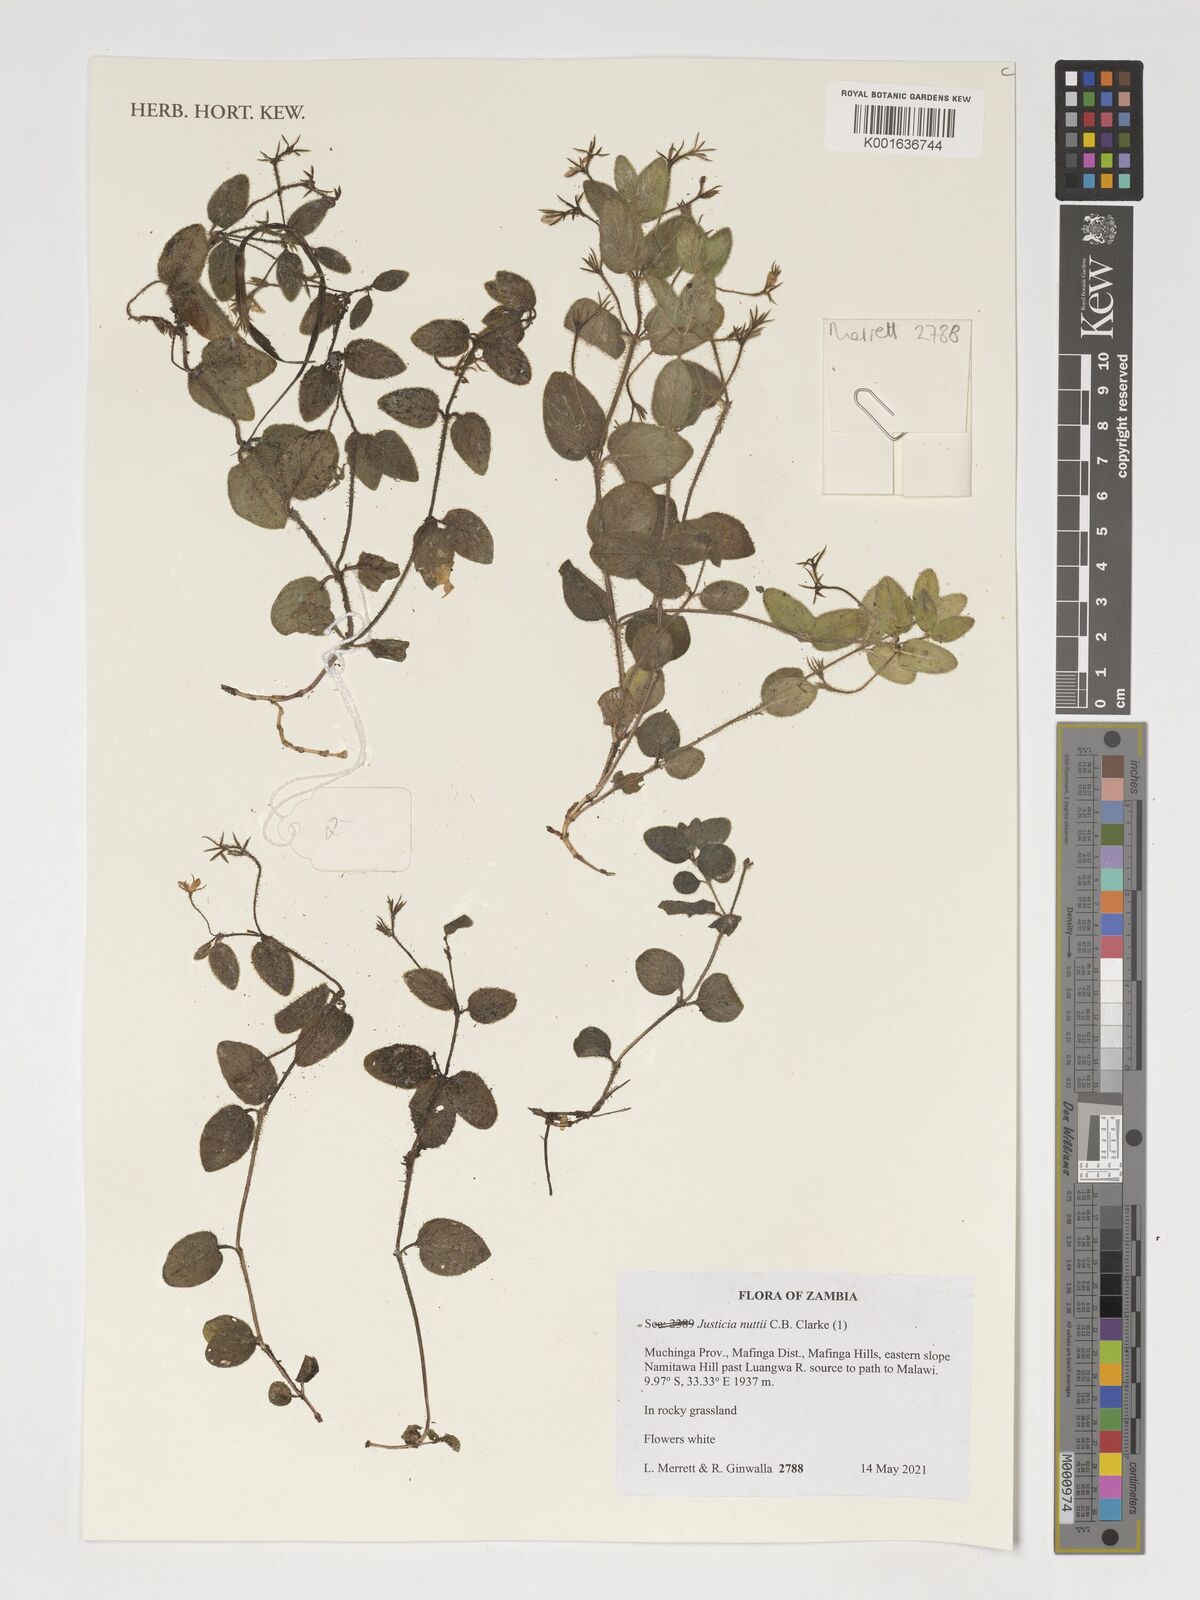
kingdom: Plantae
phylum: Tracheophyta
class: Magnoliopsida
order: Lamiales
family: Acanthaceae
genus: Justicia
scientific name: Justicia nuttii
